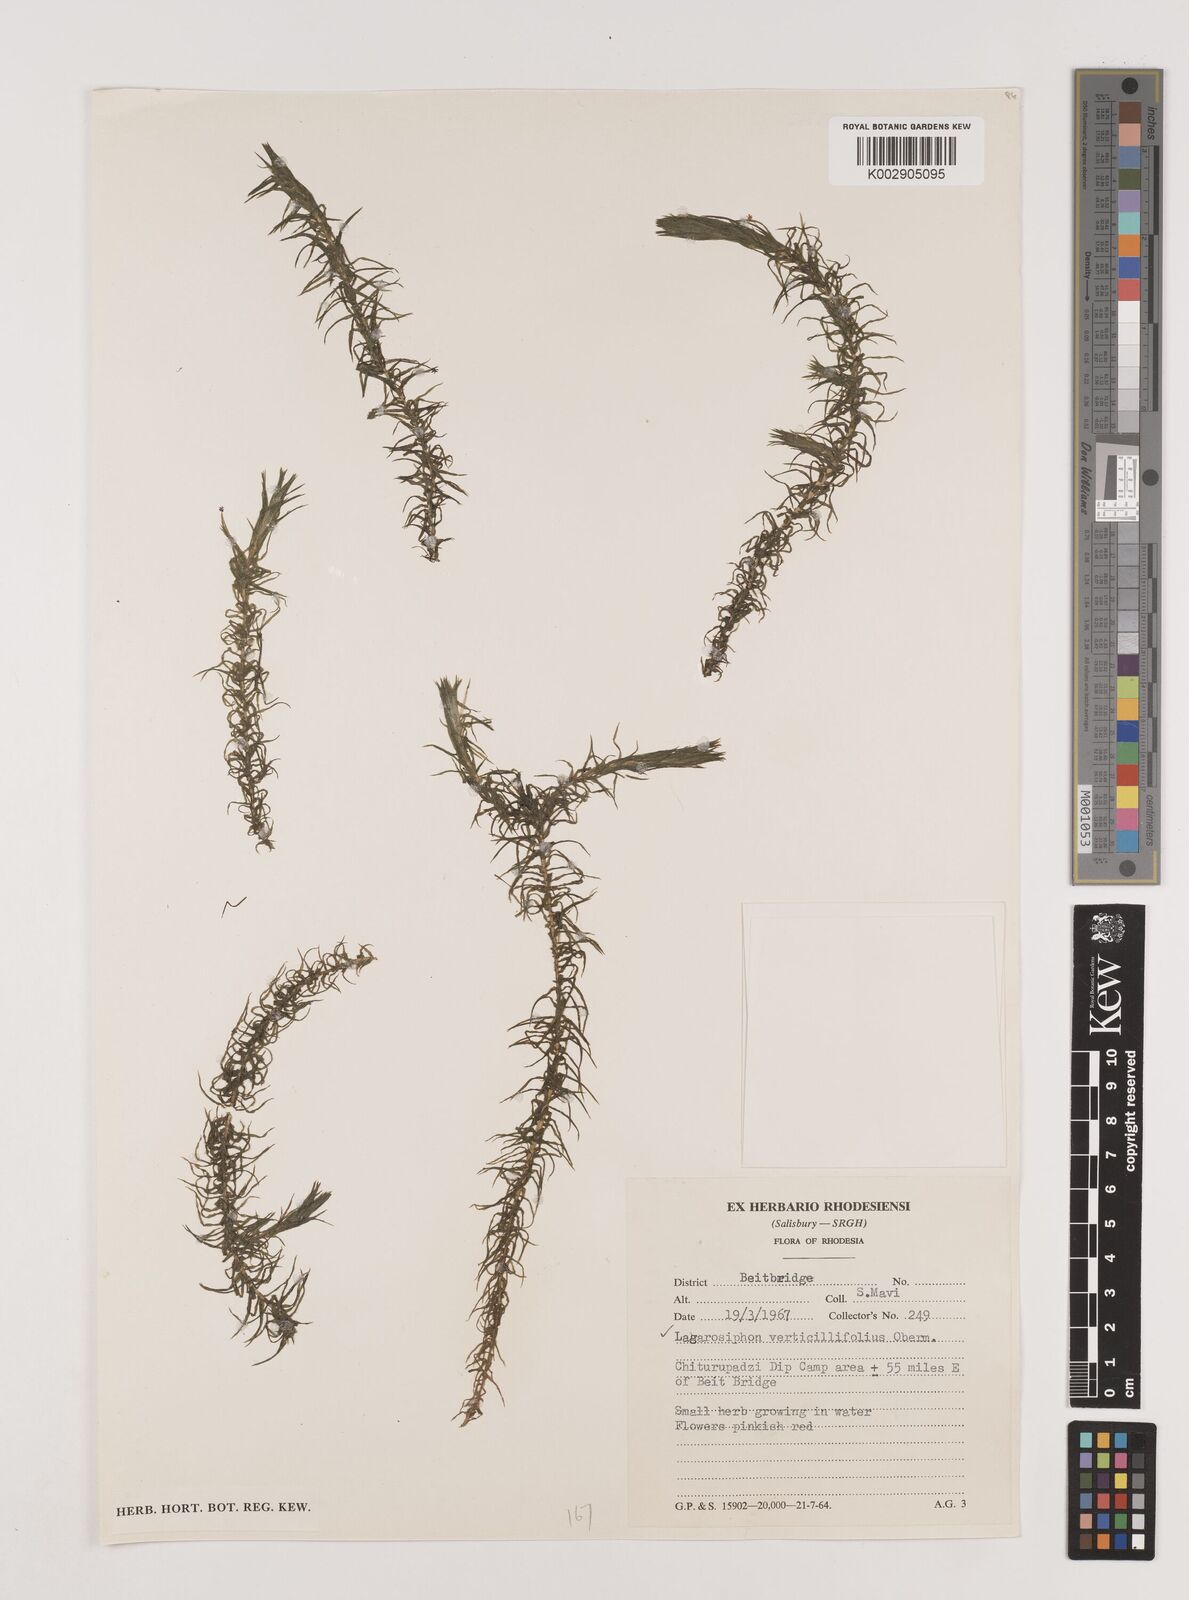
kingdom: Plantae
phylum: Tracheophyta
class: Liliopsida
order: Alismatales
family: Hydrocharitaceae
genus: Lagarosiphon
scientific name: Lagarosiphon verticillifolius
